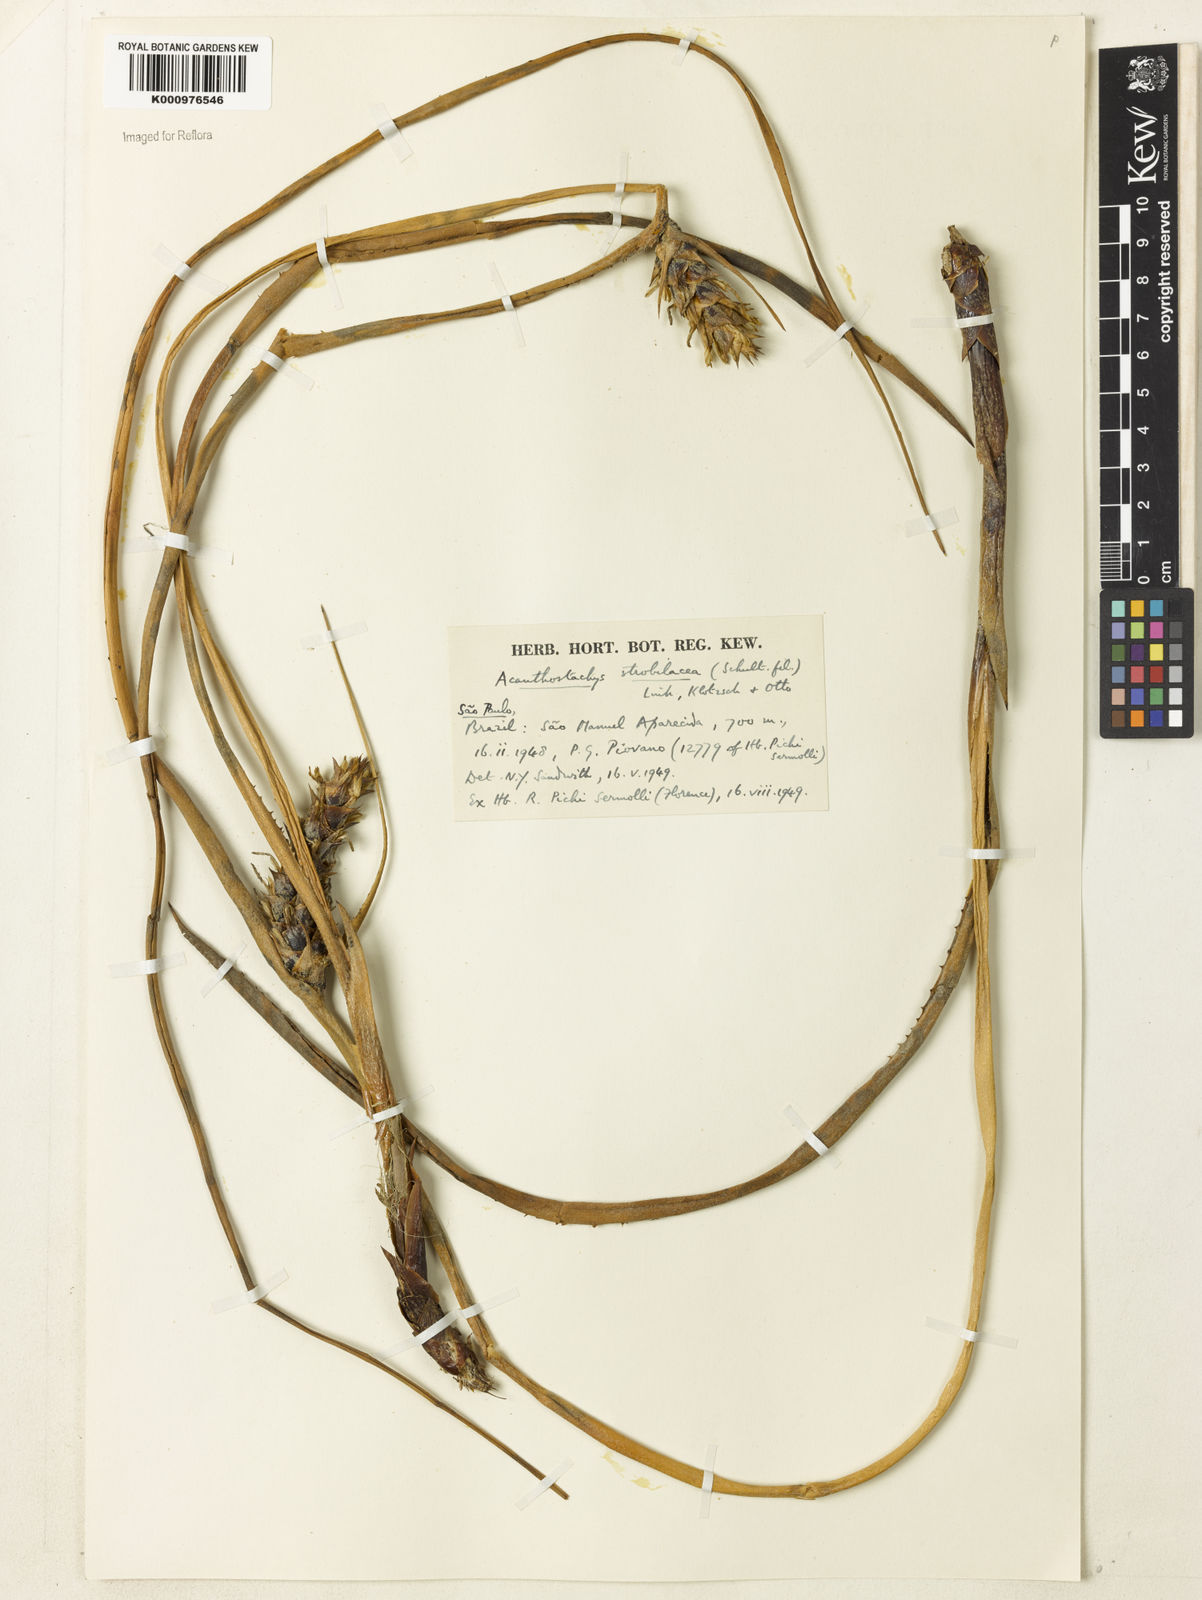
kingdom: Plantae
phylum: Tracheophyta
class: Liliopsida
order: Poales
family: Bromeliaceae
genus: Acanthostachys
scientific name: Acanthostachys strobilacea
